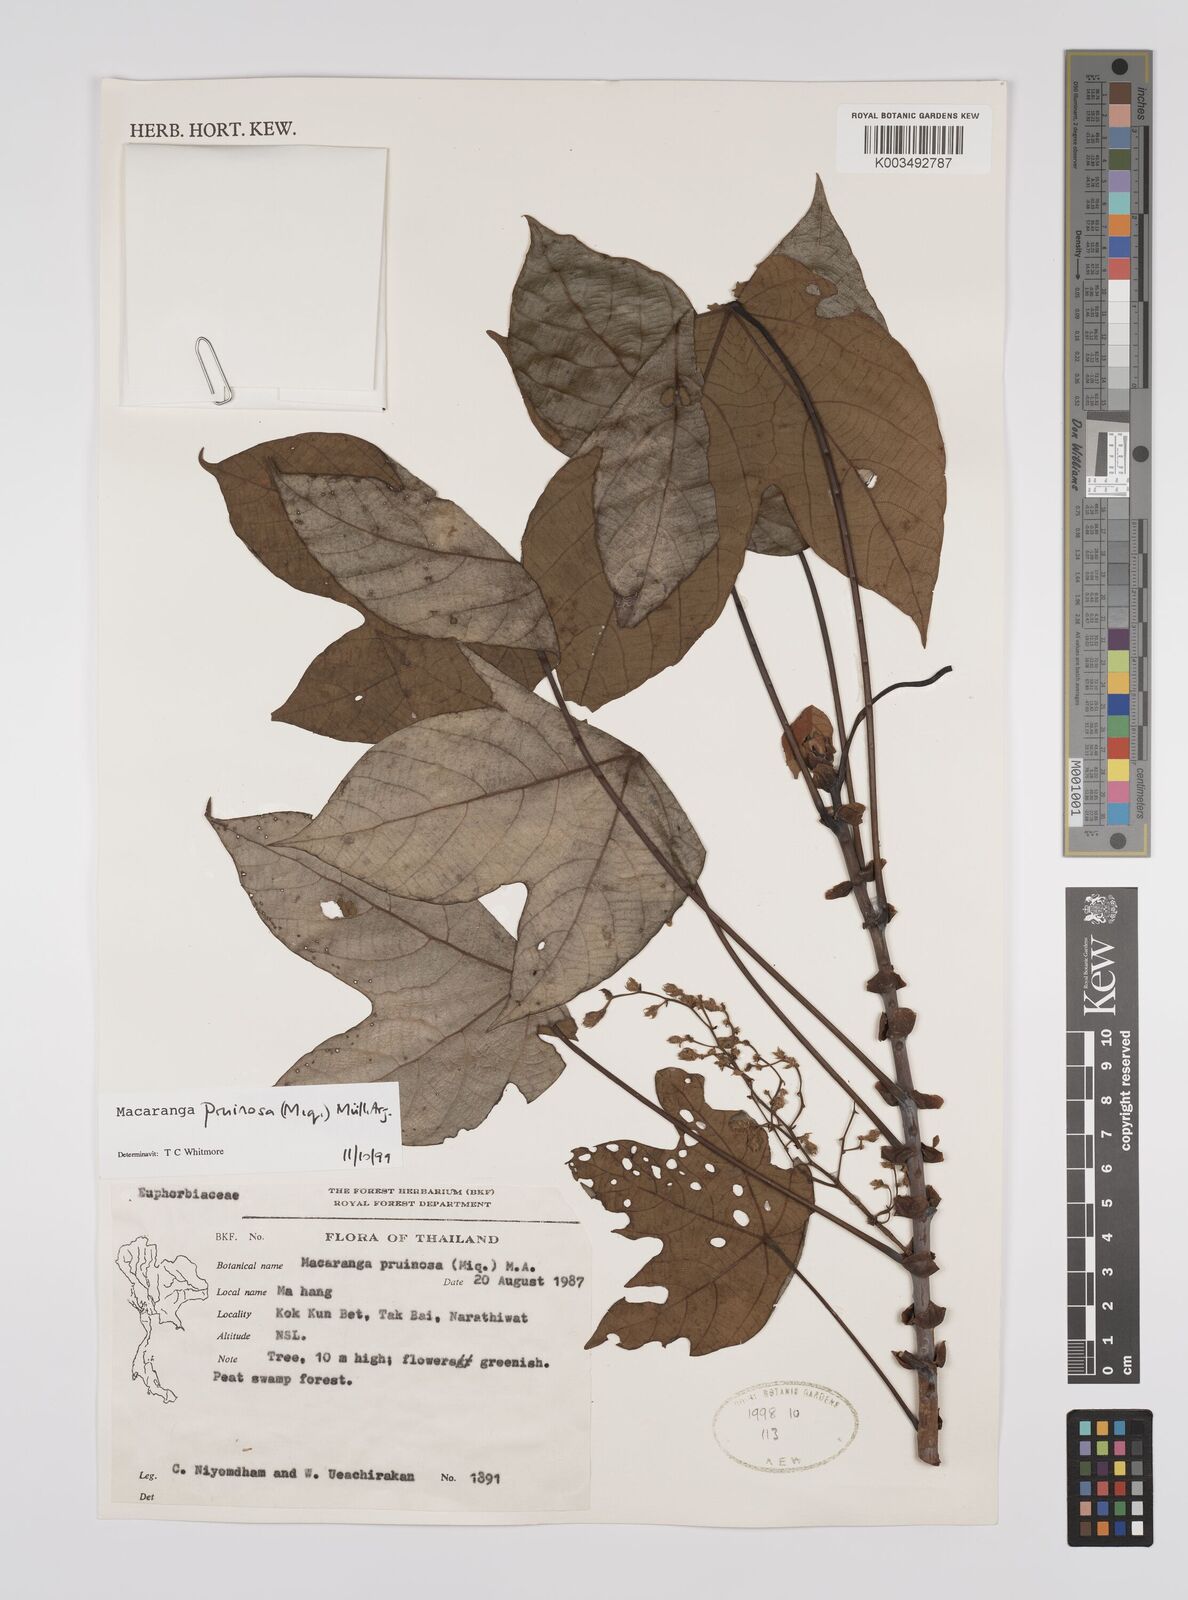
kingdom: Plantae
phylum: Tracheophyta
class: Magnoliopsida
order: Malpighiales
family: Euphorbiaceae
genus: Macaranga
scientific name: Macaranga pruinosa
